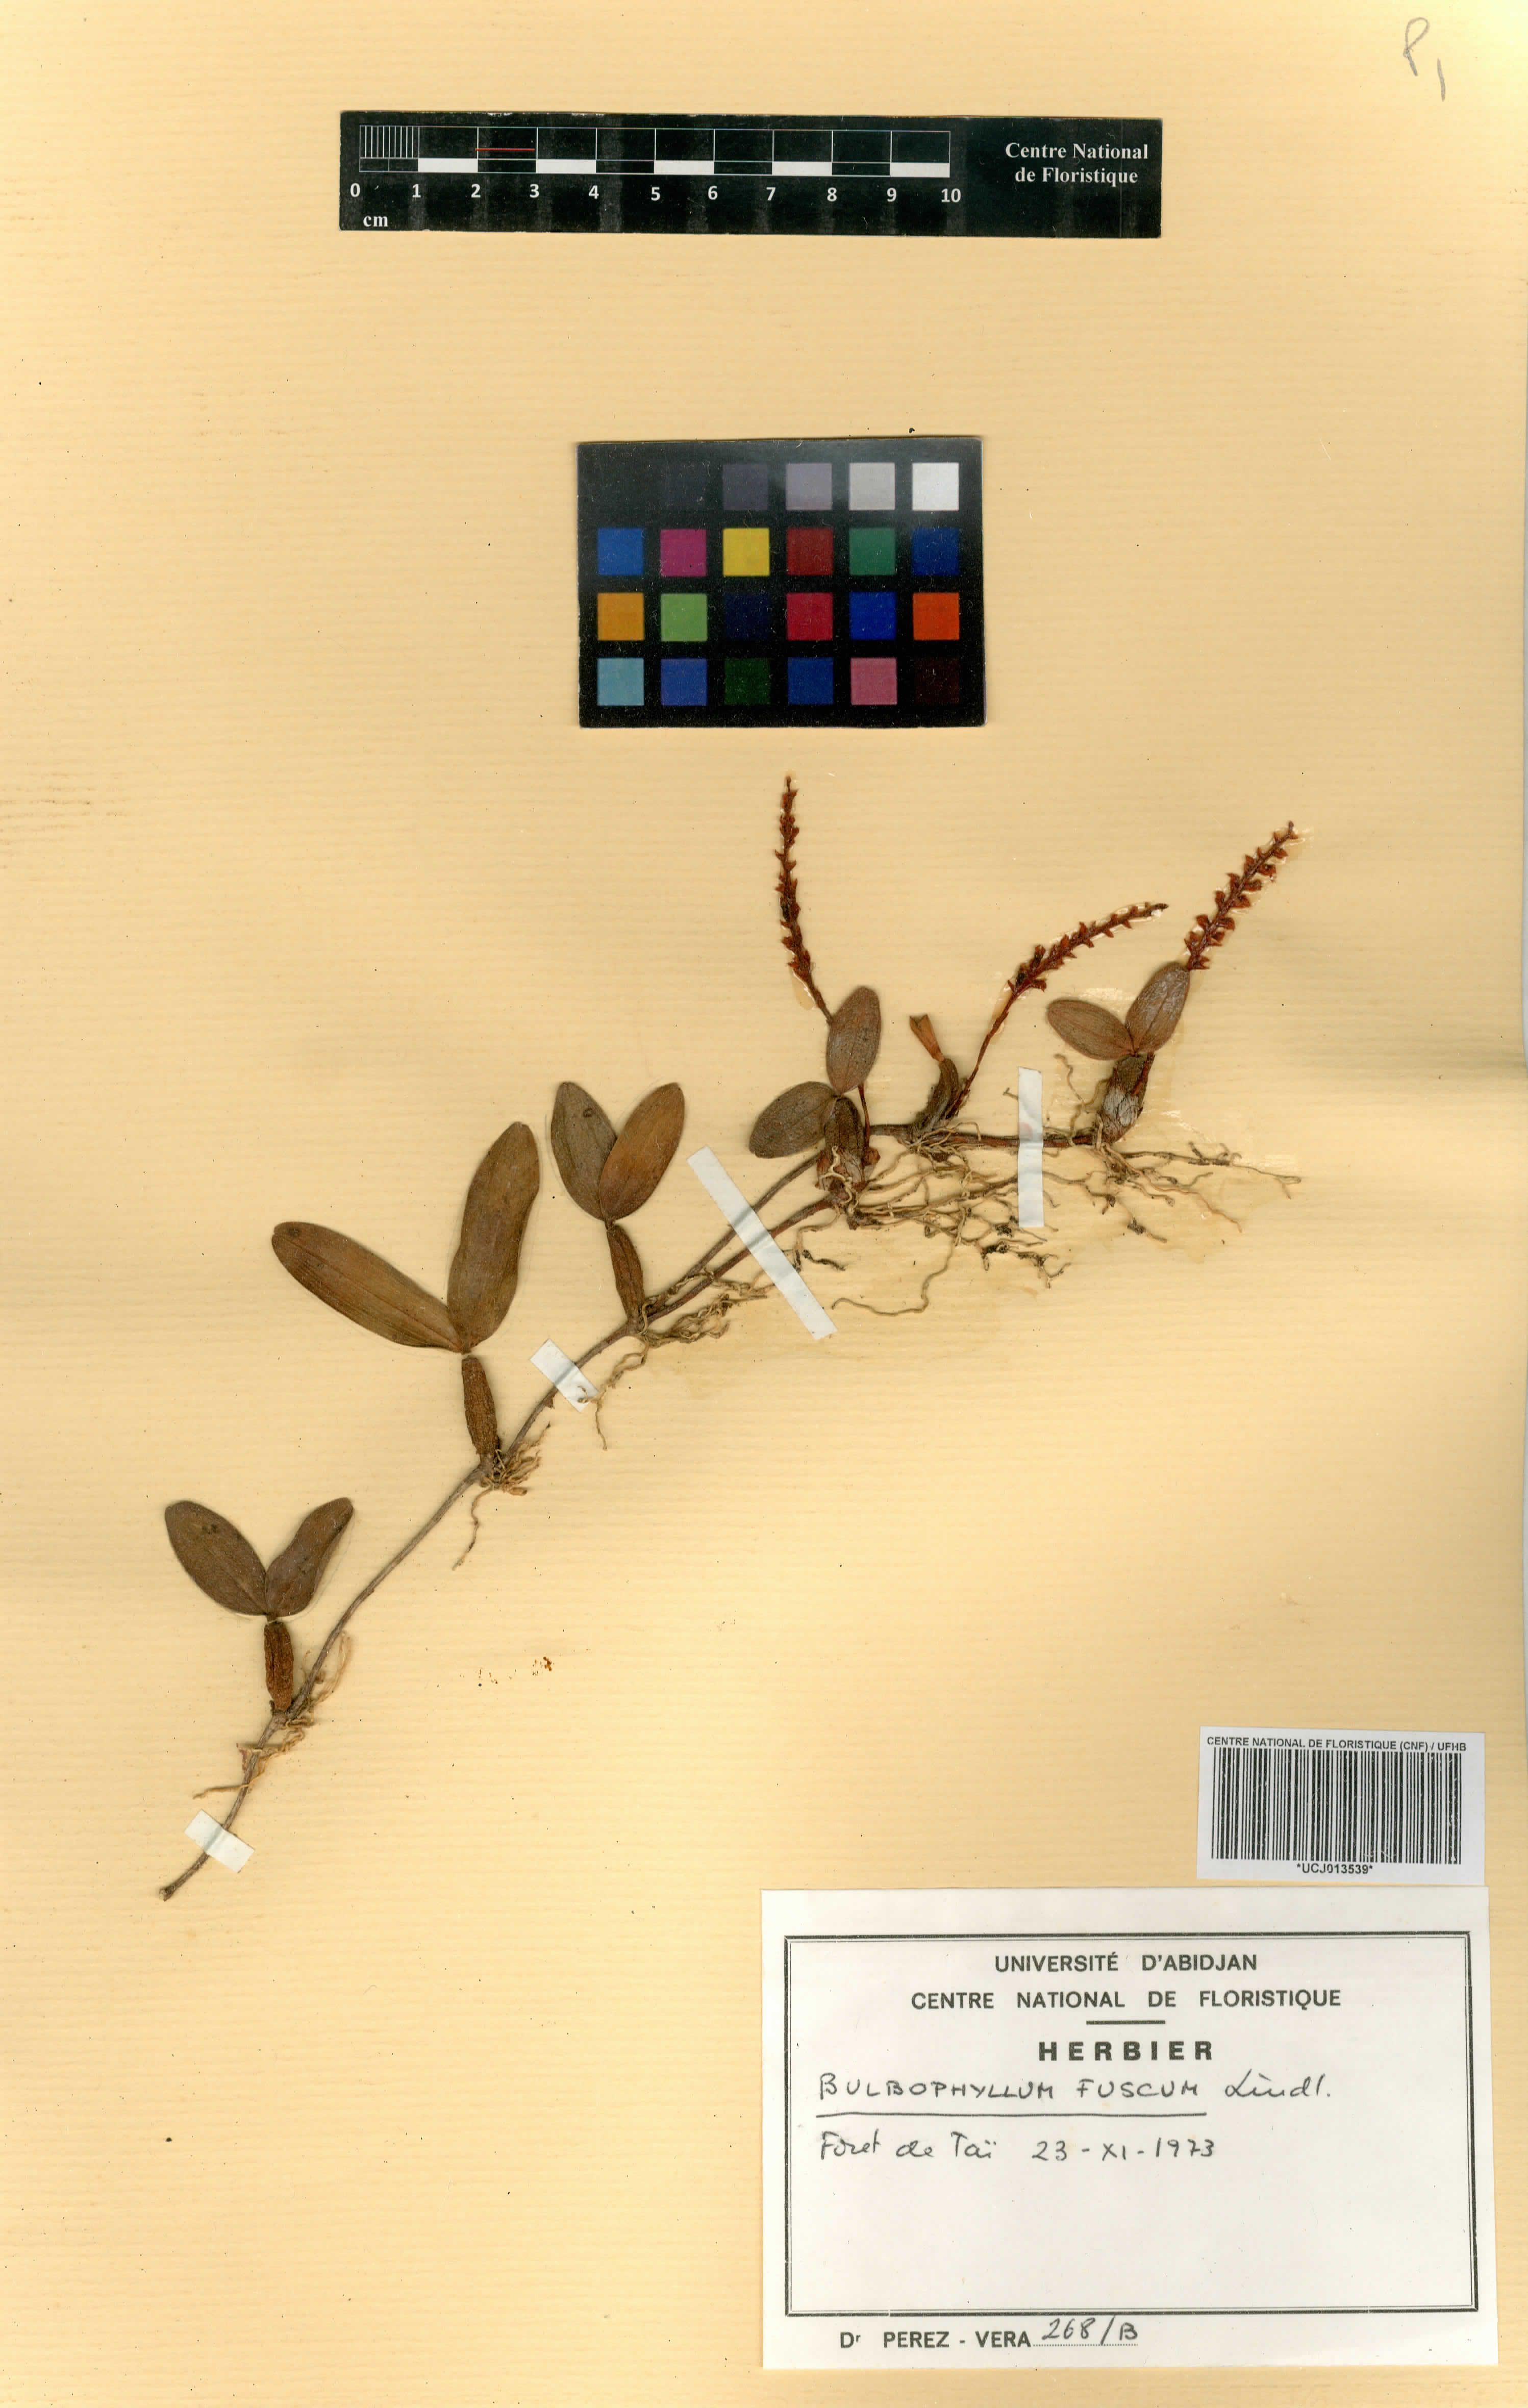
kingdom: Plantae
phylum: Tracheophyta
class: Liliopsida
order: Asparagales
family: Orchidaceae
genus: Bulbophyllum
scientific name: Bulbophyllum fuscum
